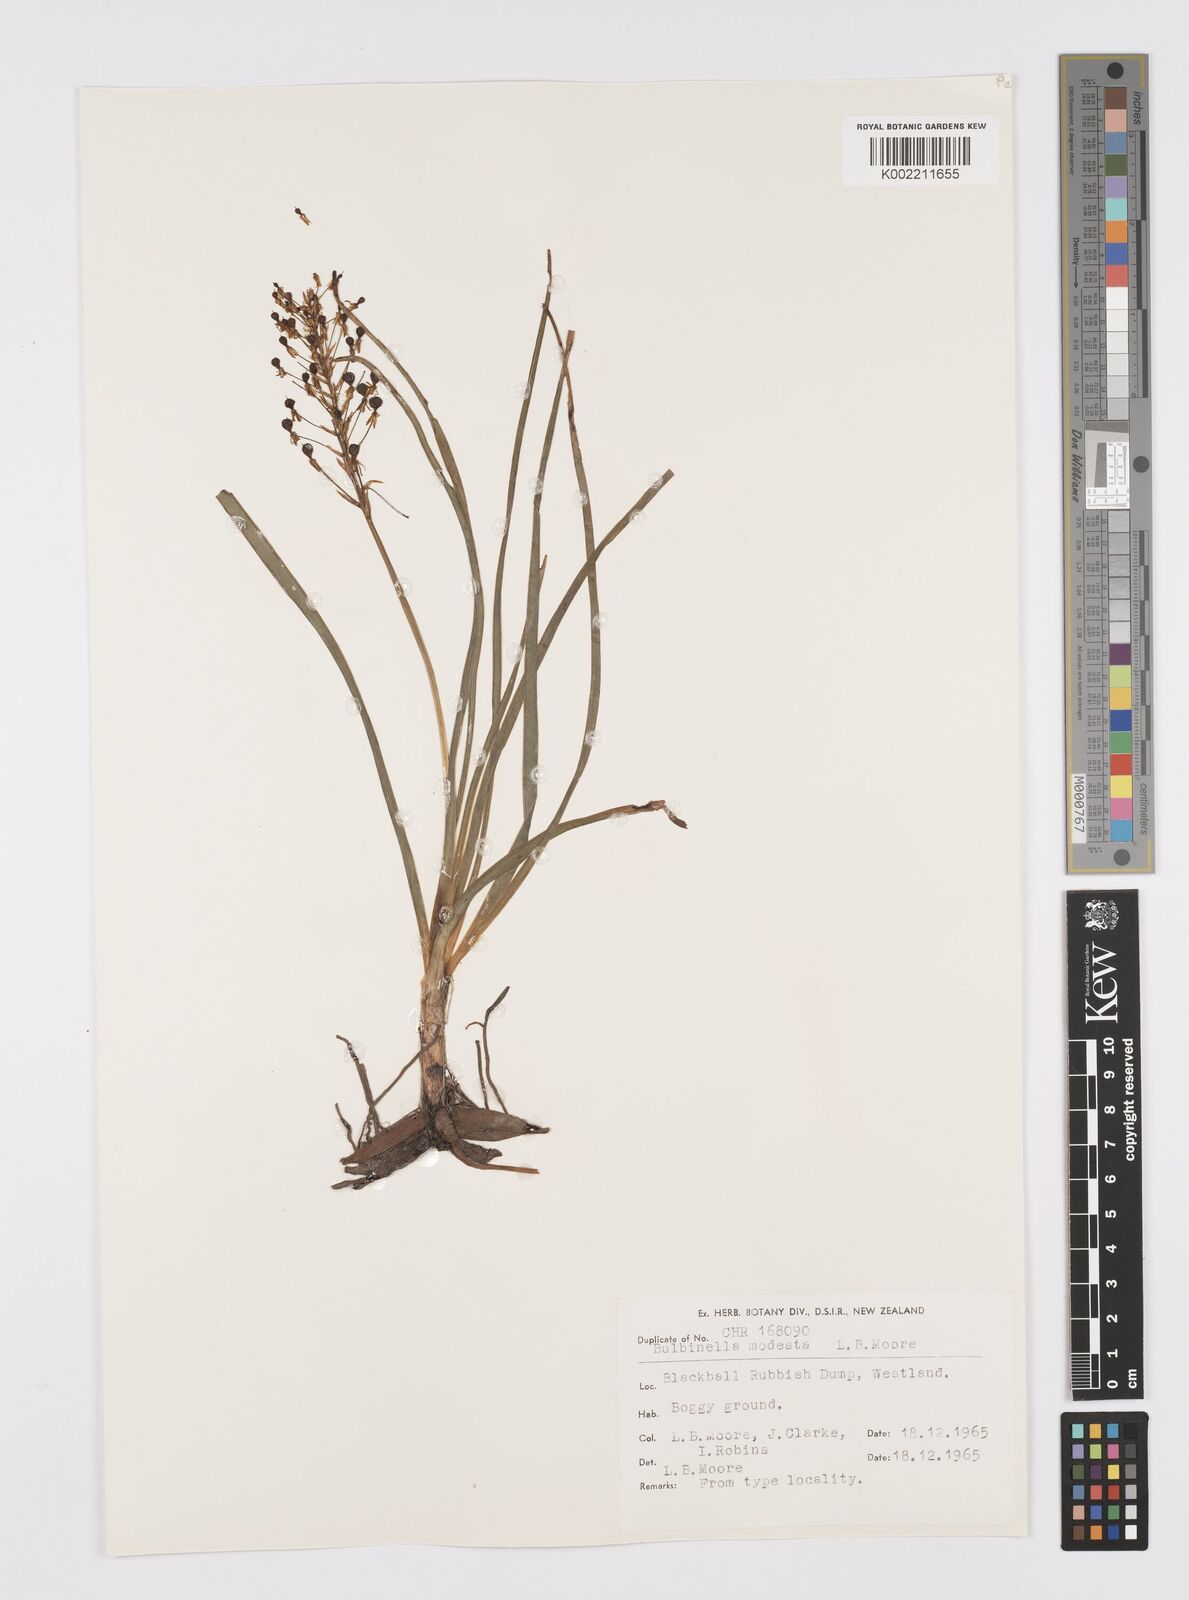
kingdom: Plantae
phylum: Tracheophyta
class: Liliopsida
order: Asparagales
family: Asphodelaceae
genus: Bulbinella
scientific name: Bulbinella modesta
